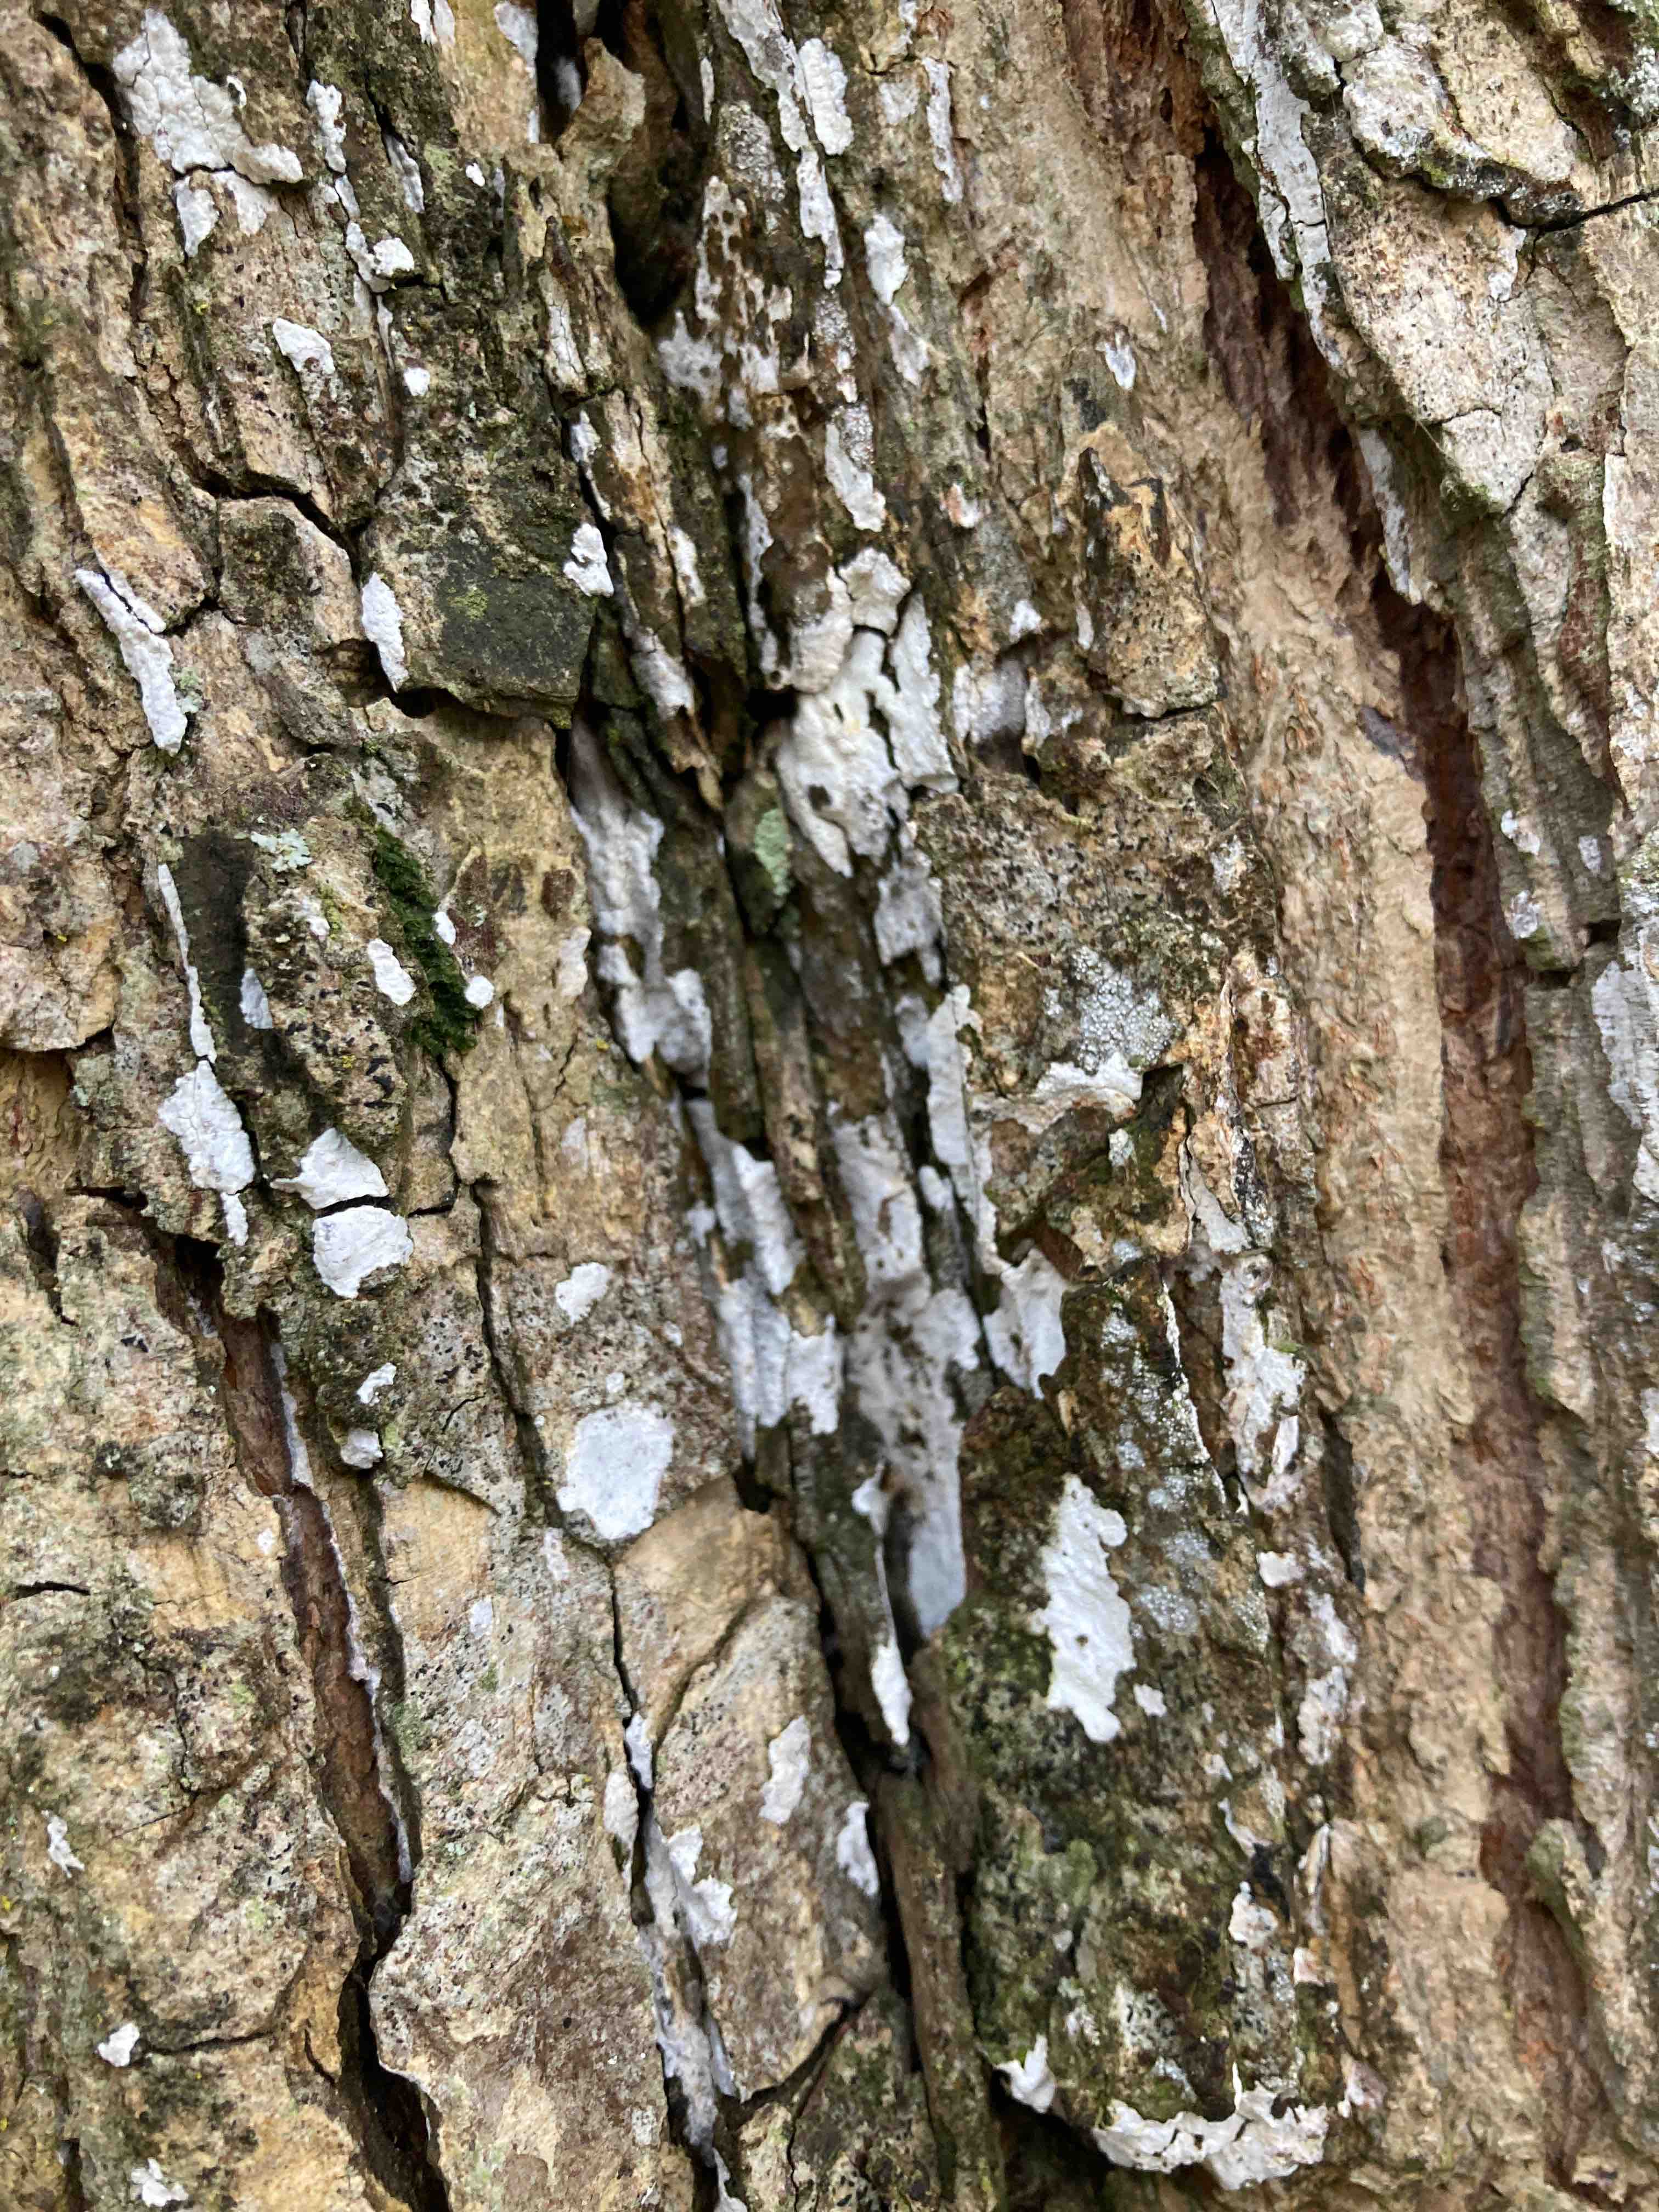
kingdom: Fungi
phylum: Basidiomycota
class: Agaricomycetes
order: Agaricales
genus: Dendrothele
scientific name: Dendrothele acerina
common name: navr-kalkplet
